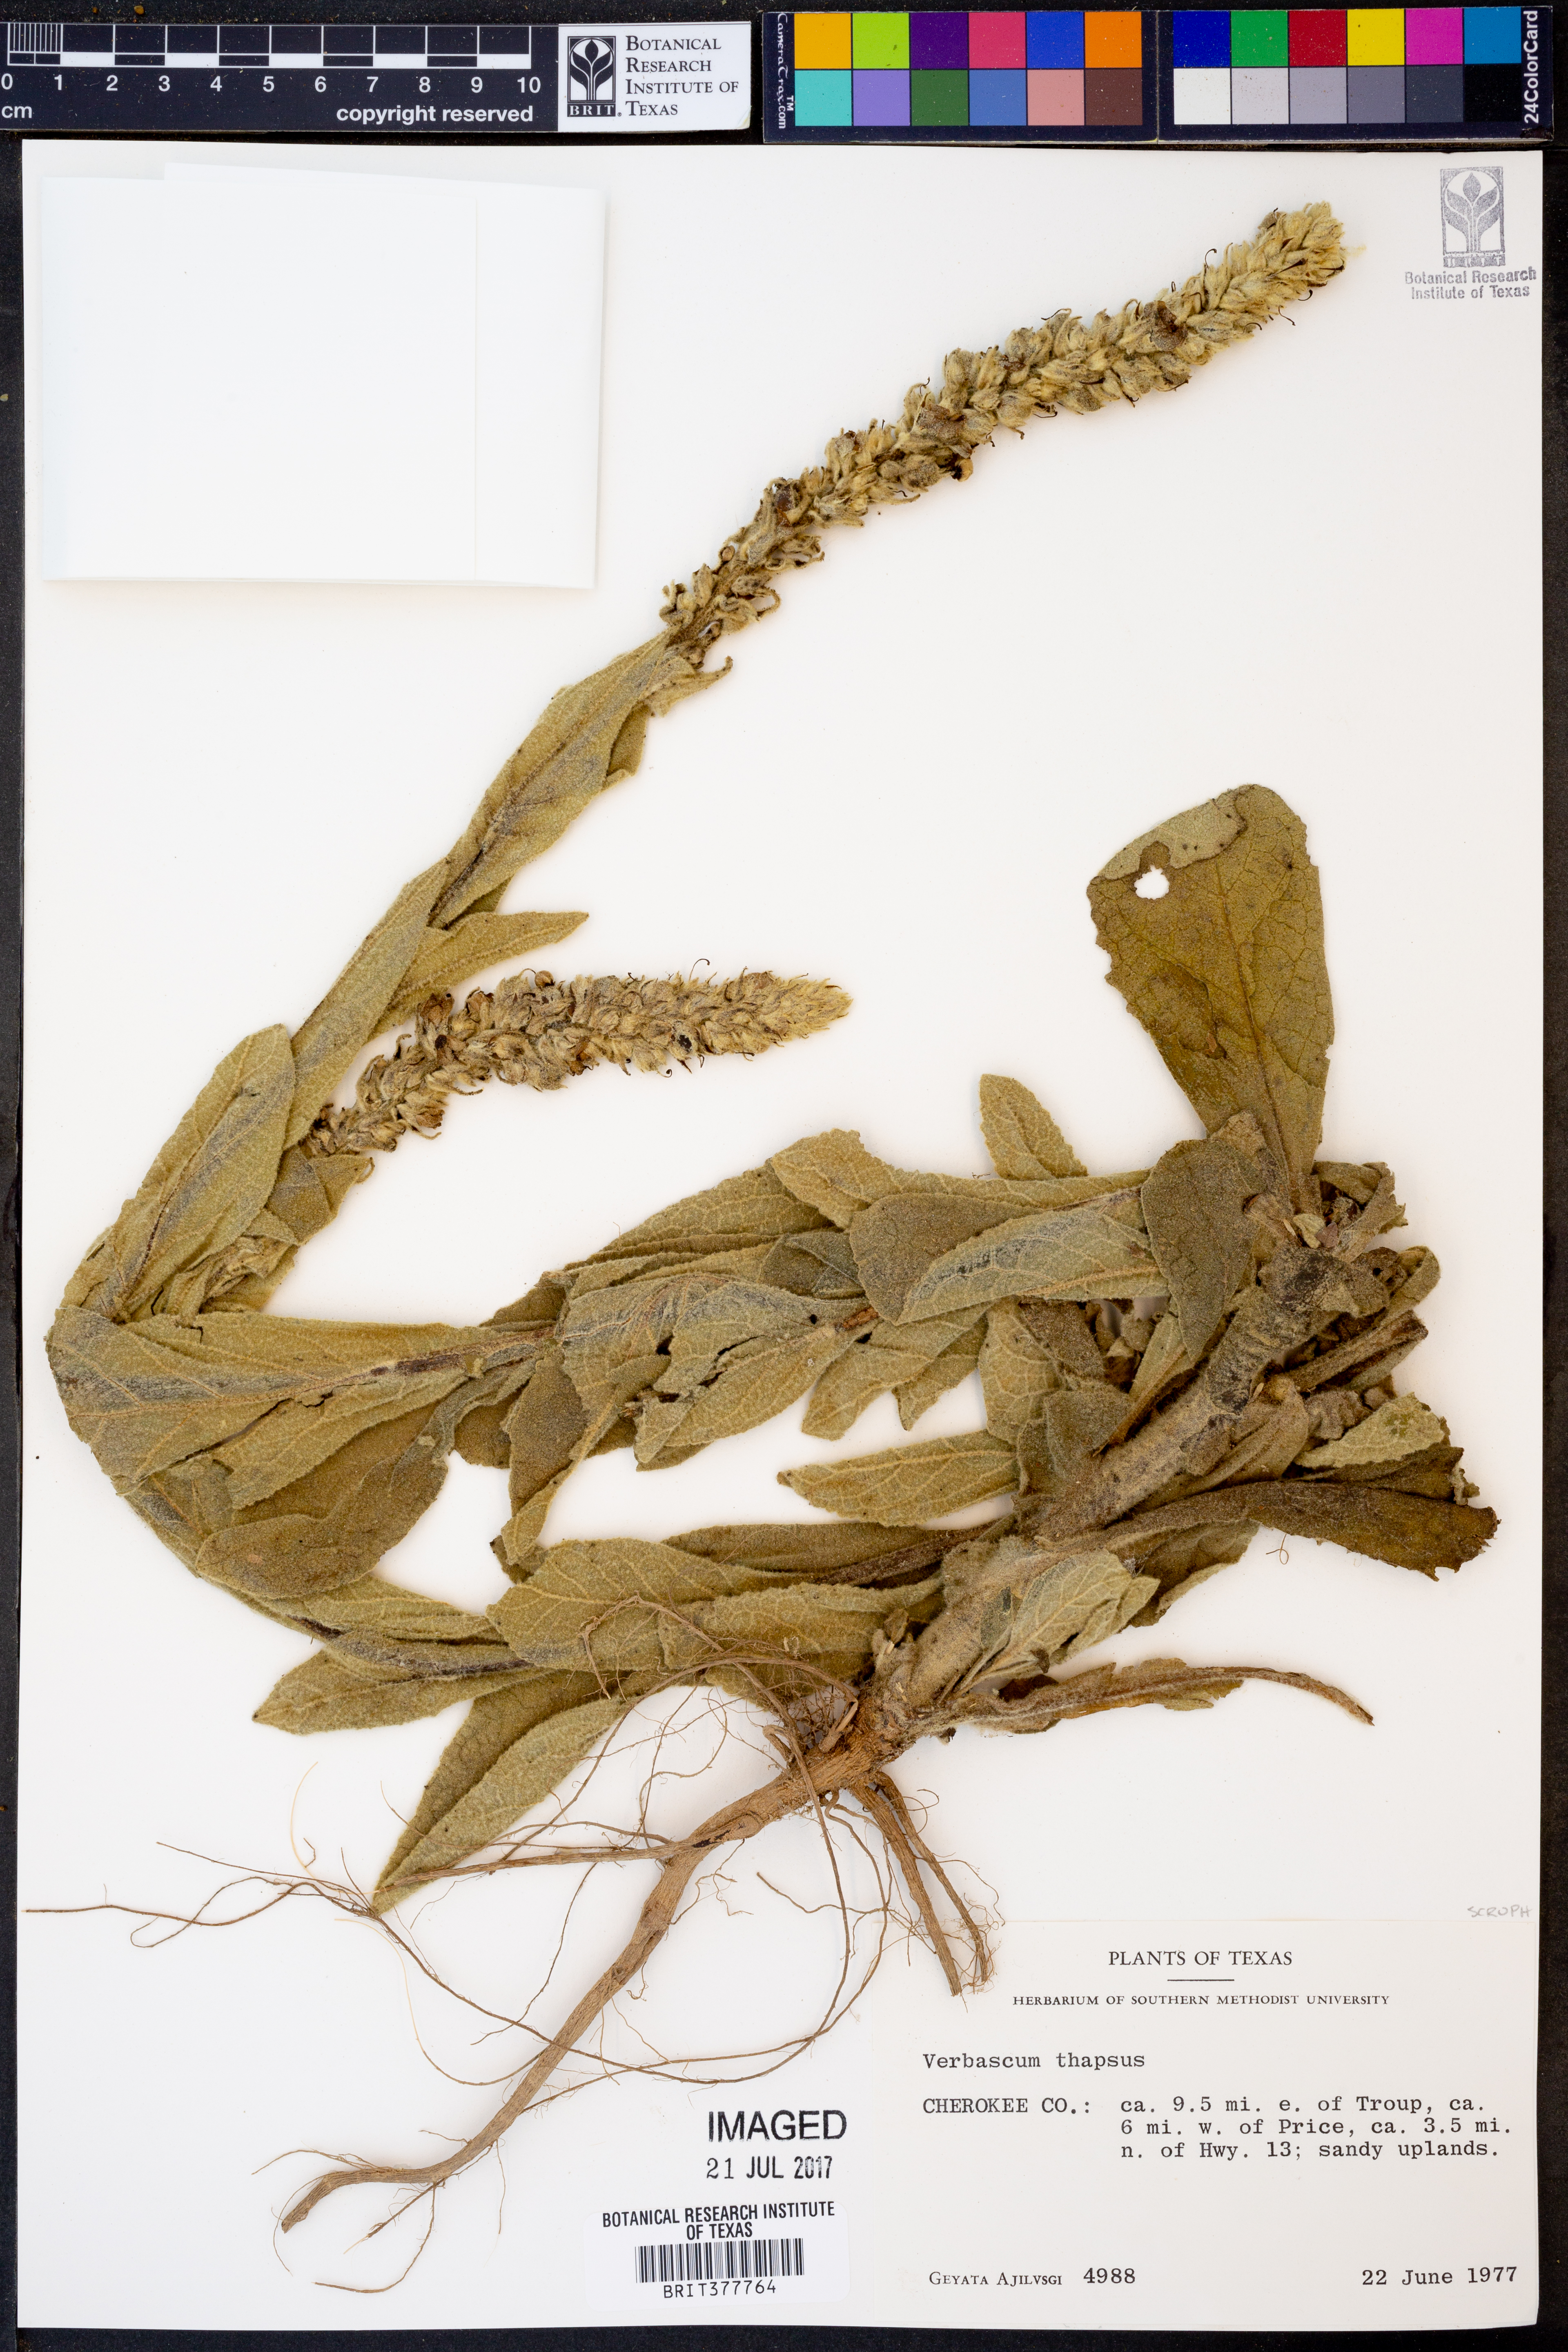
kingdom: Plantae
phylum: Tracheophyta
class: Magnoliopsida
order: Lamiales
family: Scrophulariaceae
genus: Verbascum
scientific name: Verbascum thapsus
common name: Common mullein
